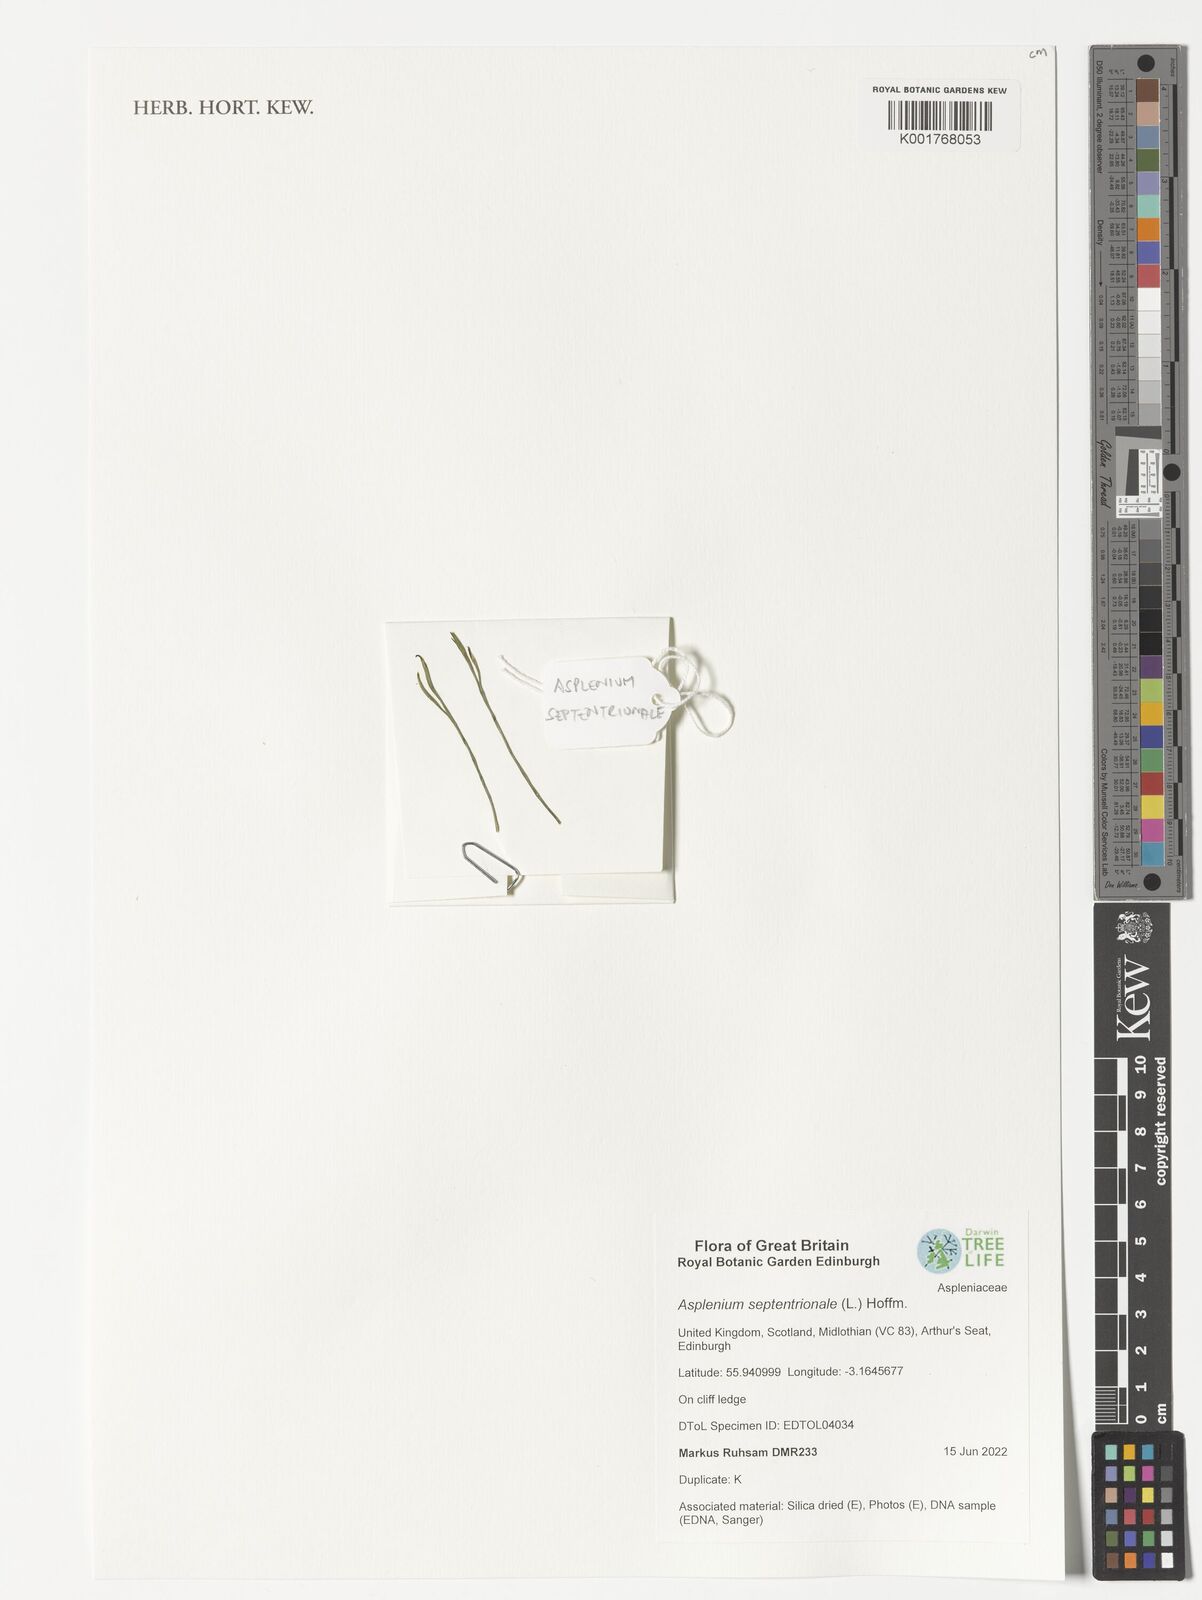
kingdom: Plantae
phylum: Tracheophyta
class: Polypodiopsida
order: Polypodiales
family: Aspleniaceae
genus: Asplenium
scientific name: Asplenium septentrionale
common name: Forked spleenwort
